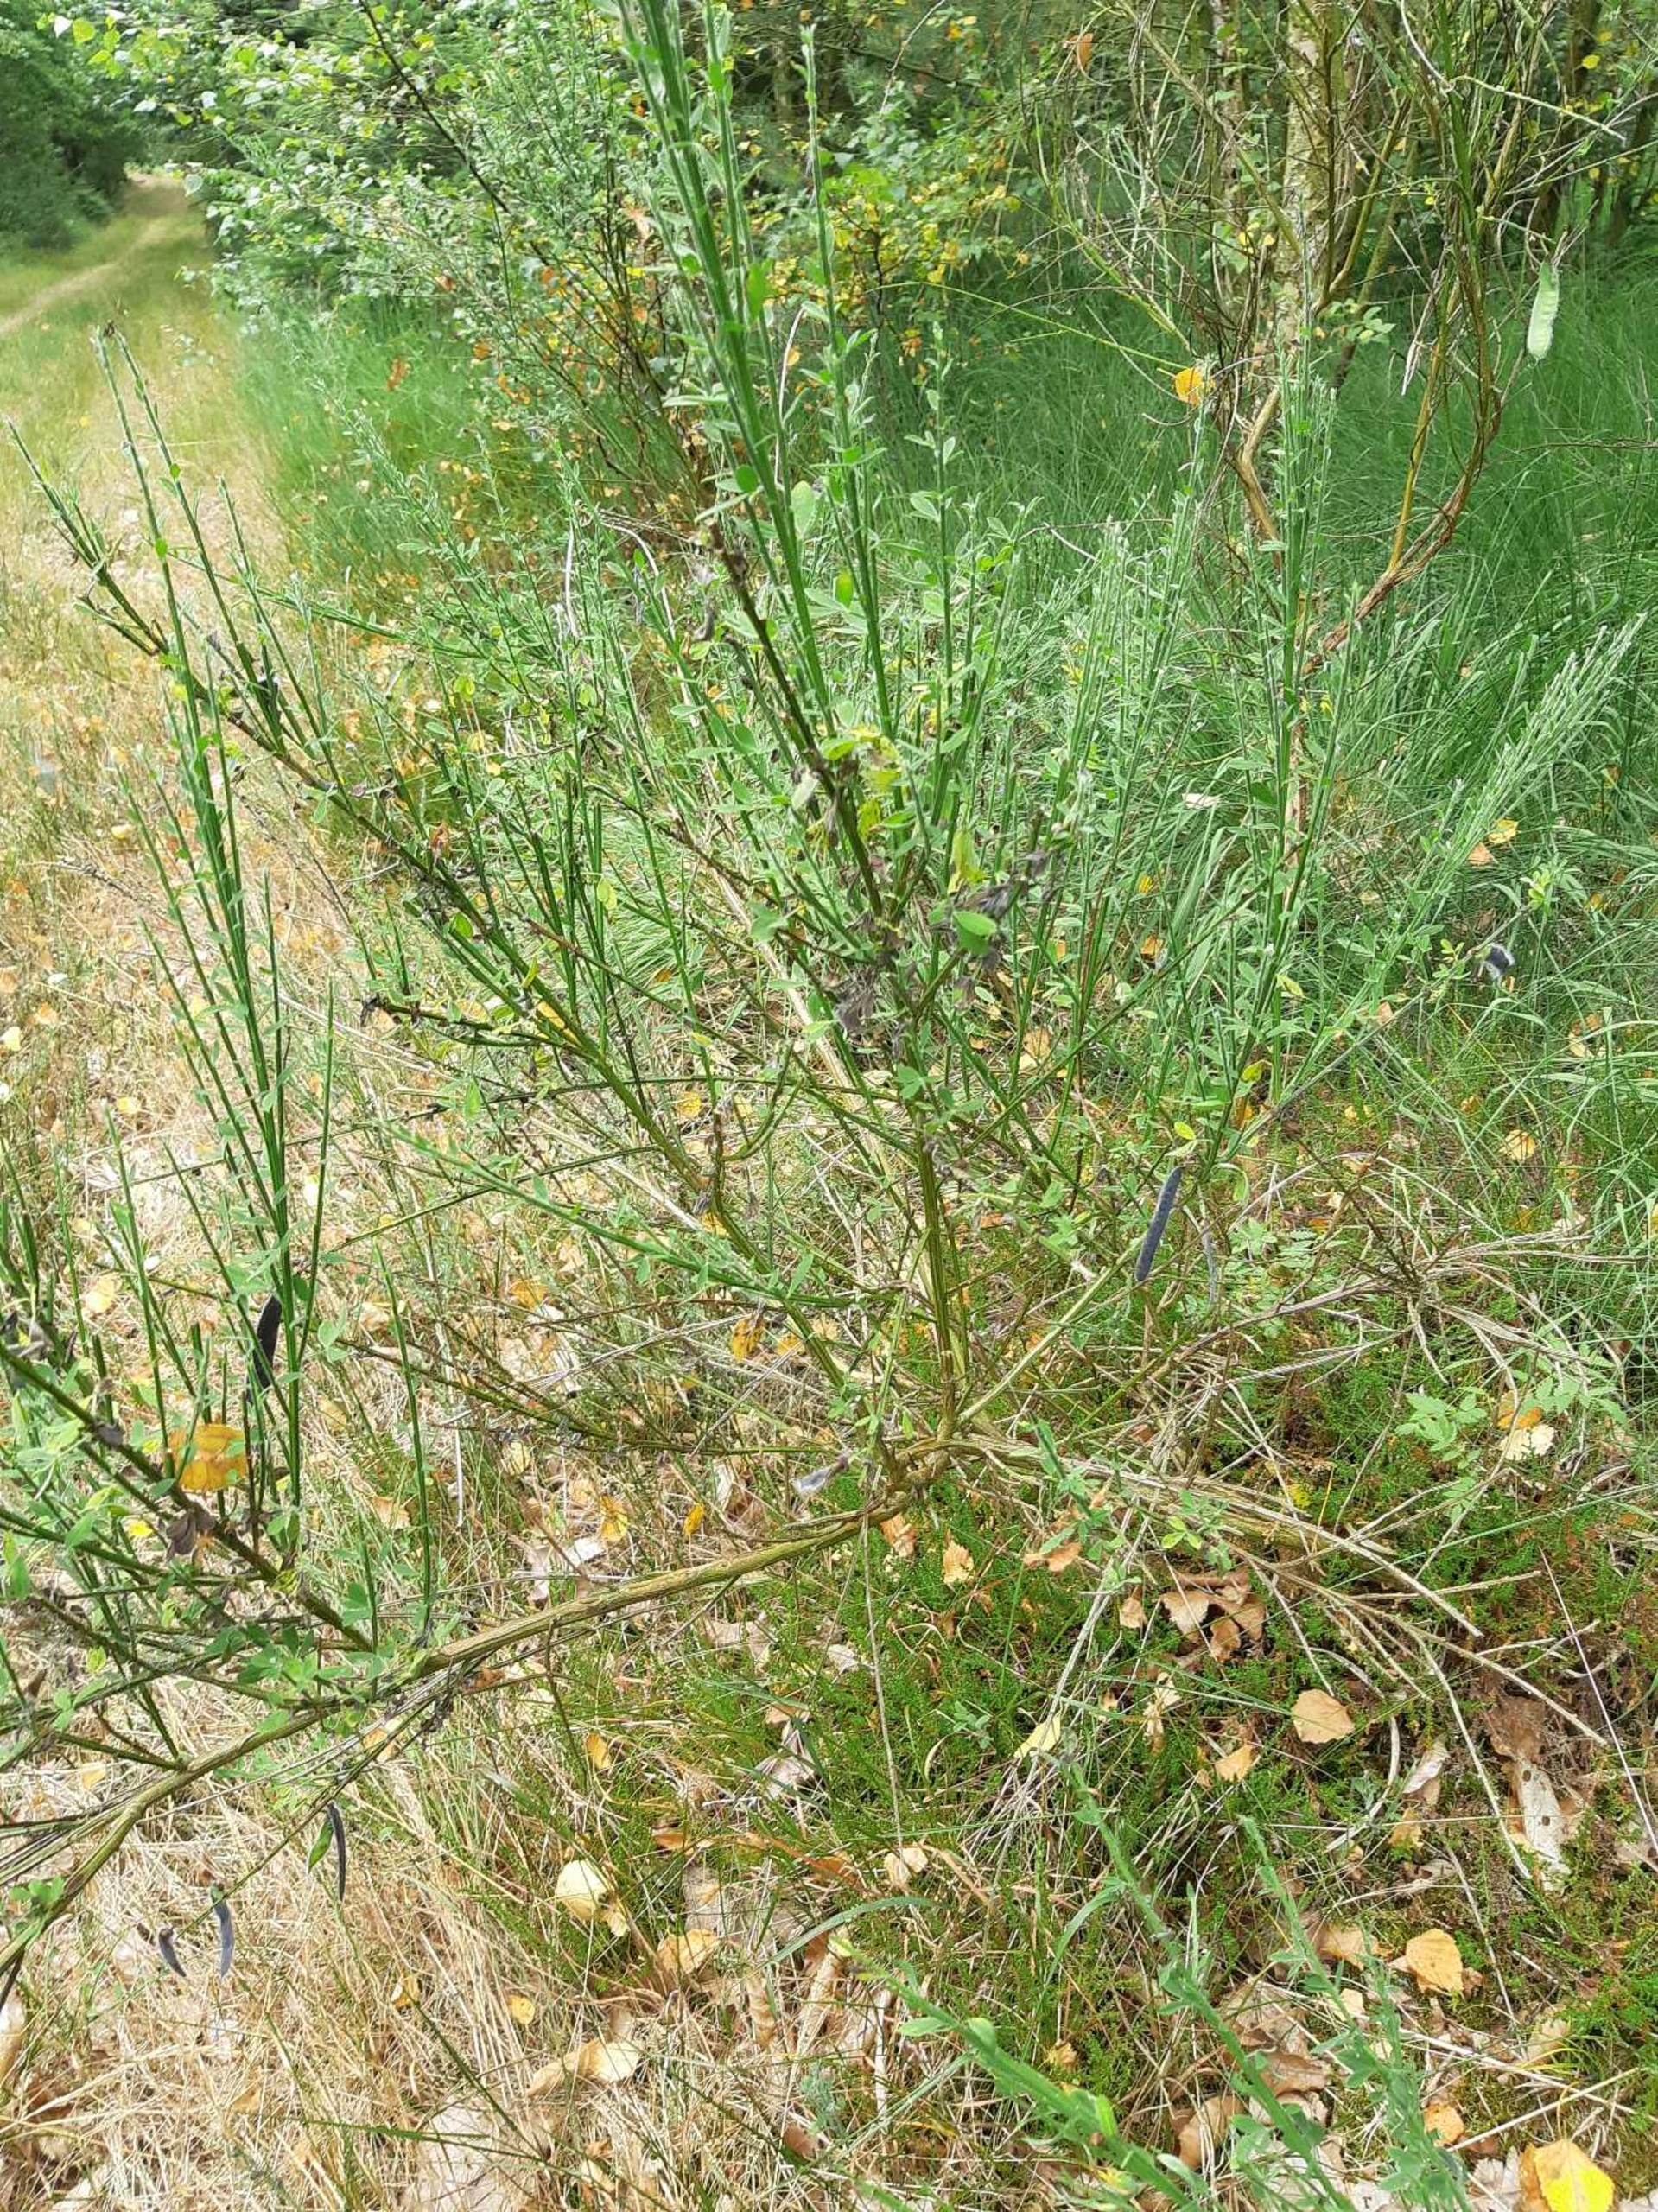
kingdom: Plantae
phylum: Tracheophyta
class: Magnoliopsida
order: Fabales
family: Fabaceae
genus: Cytisus
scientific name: Cytisus scoparius
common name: Lav gyvel
